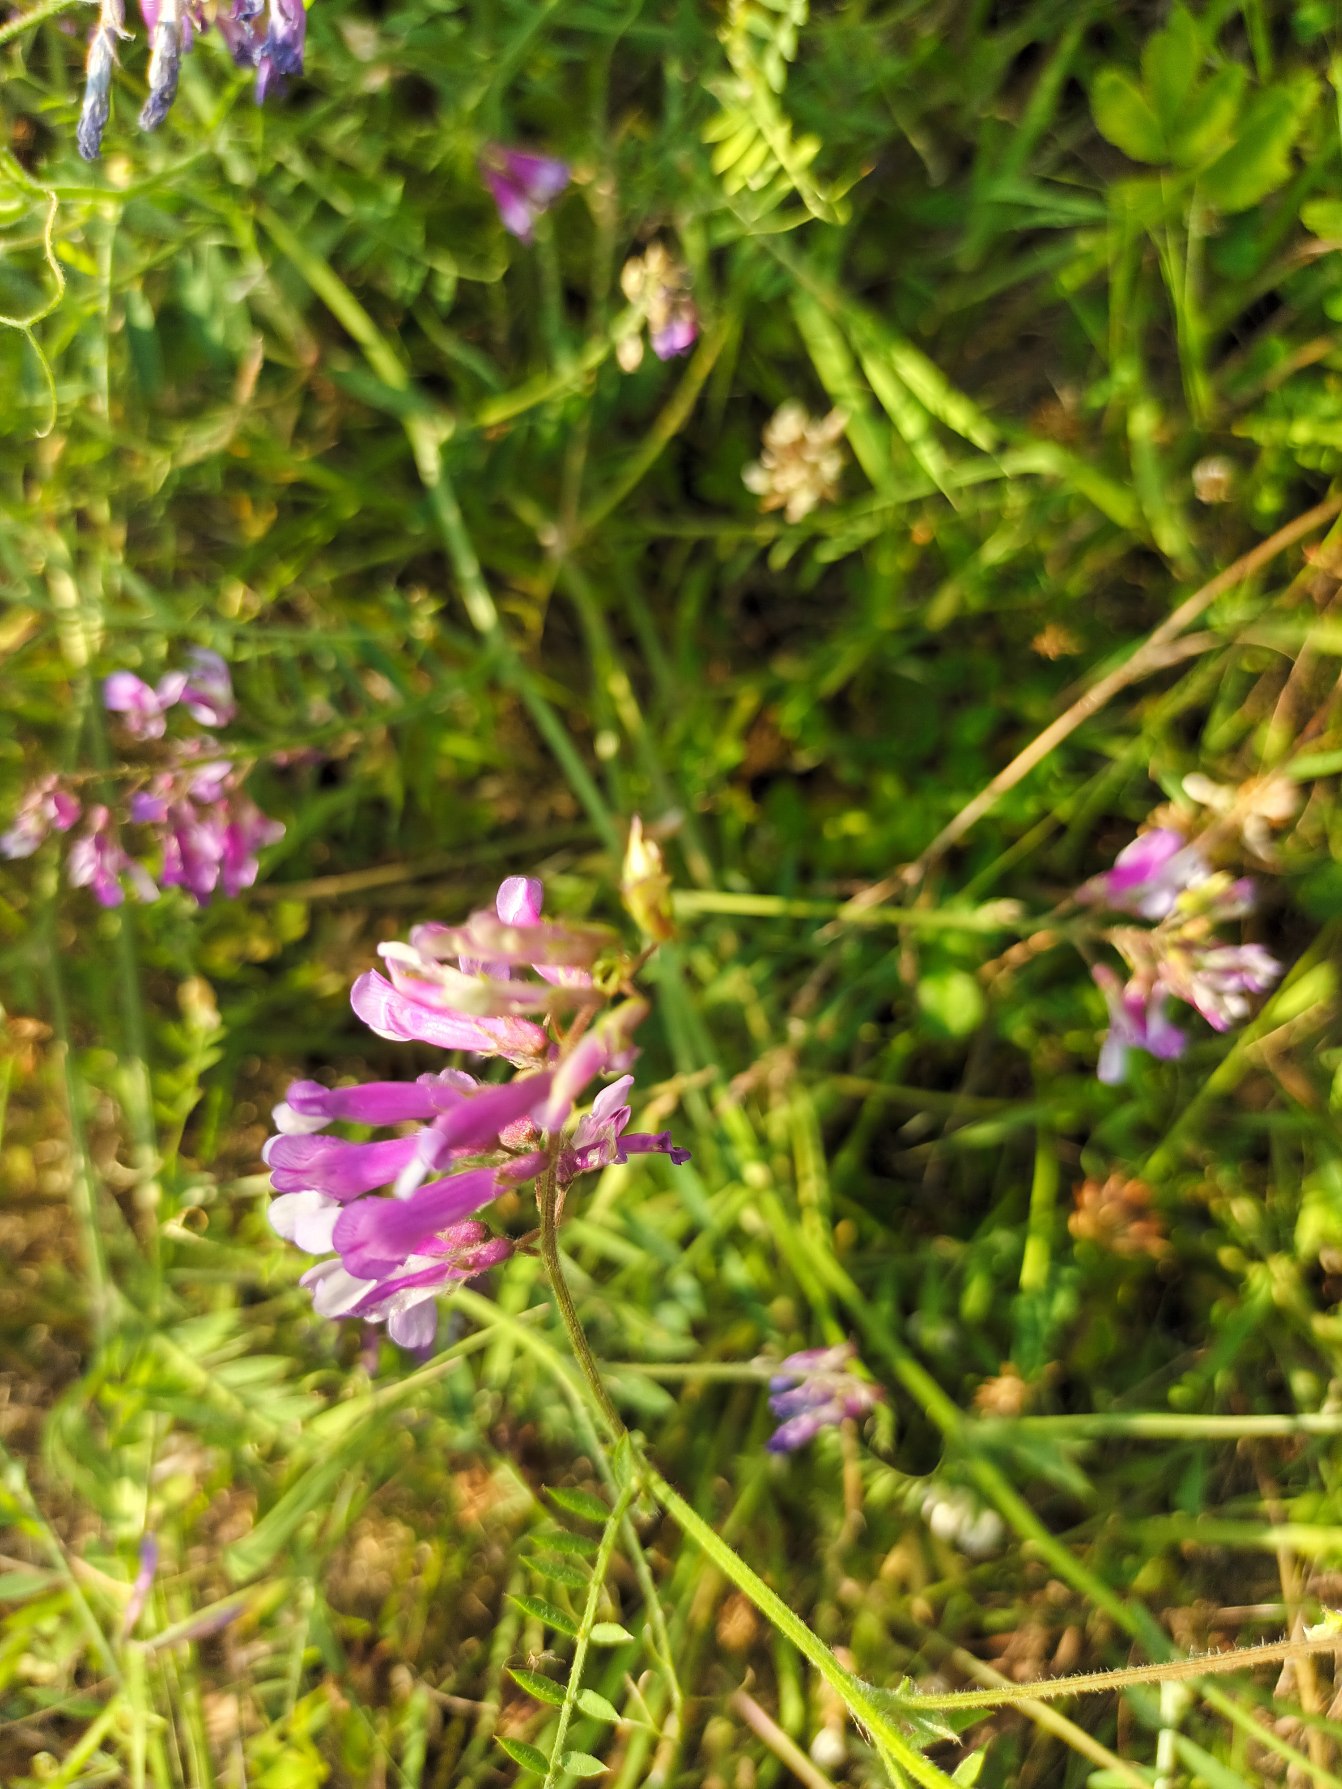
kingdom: Plantae
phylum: Tracheophyta
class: Magnoliopsida
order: Fabales
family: Fabaceae
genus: Vicia
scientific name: Vicia villosa
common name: Sand-vikke
